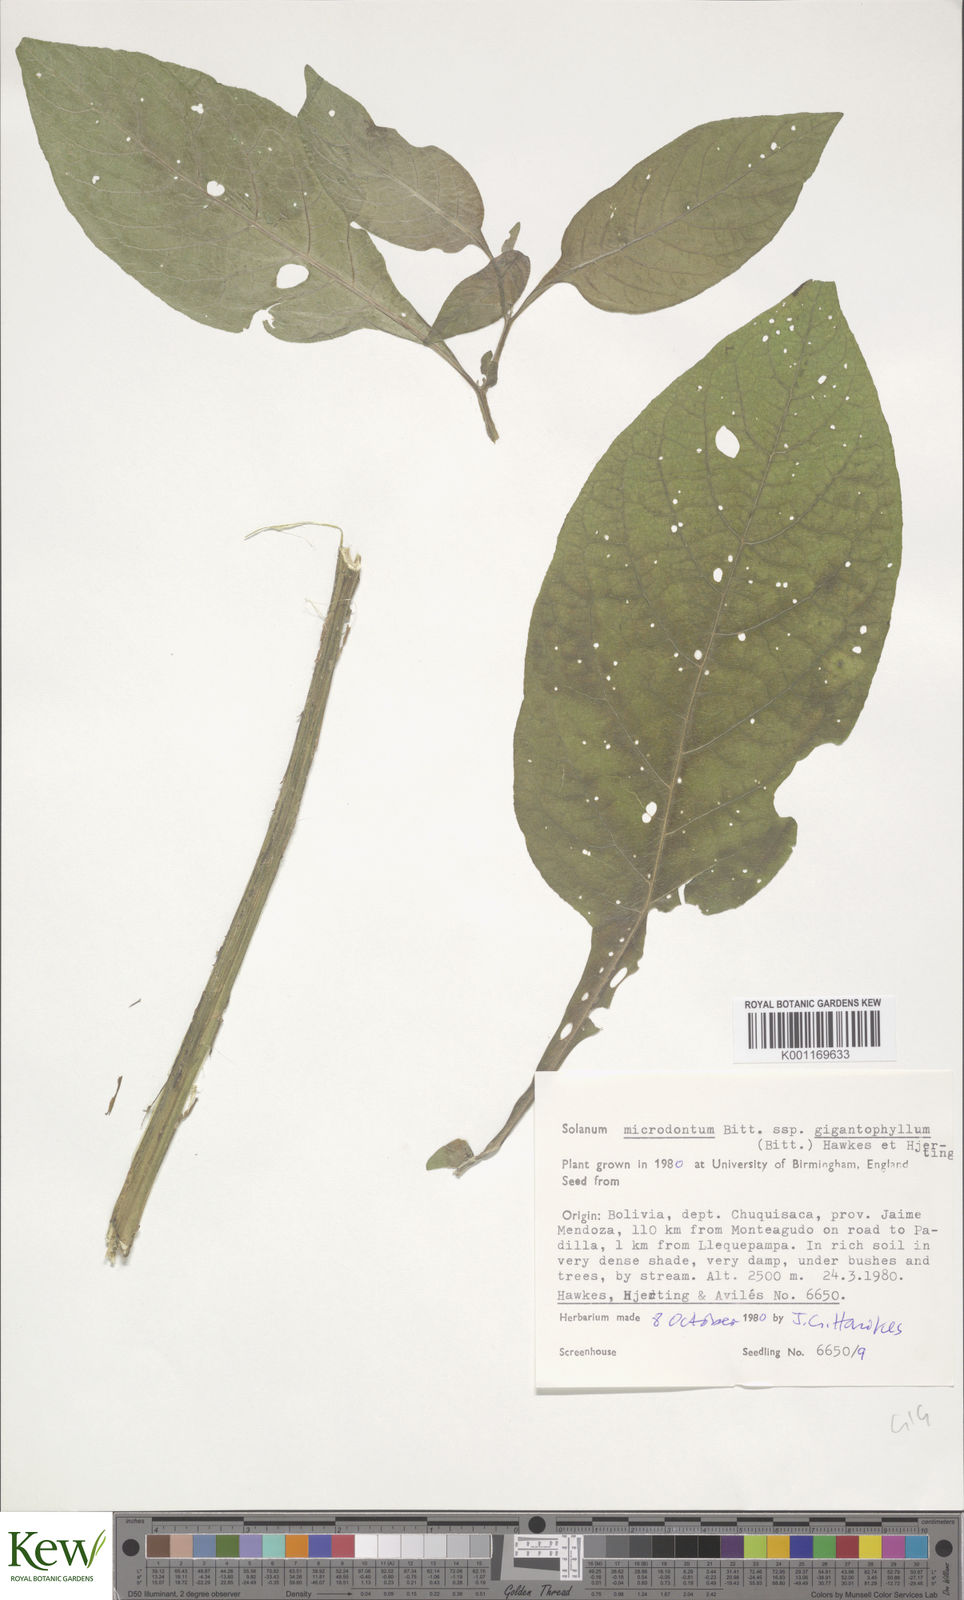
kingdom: Plantae
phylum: Tracheophyta
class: Magnoliopsida
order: Solanales
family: Solanaceae
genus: Solanum
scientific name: Solanum microdontum
